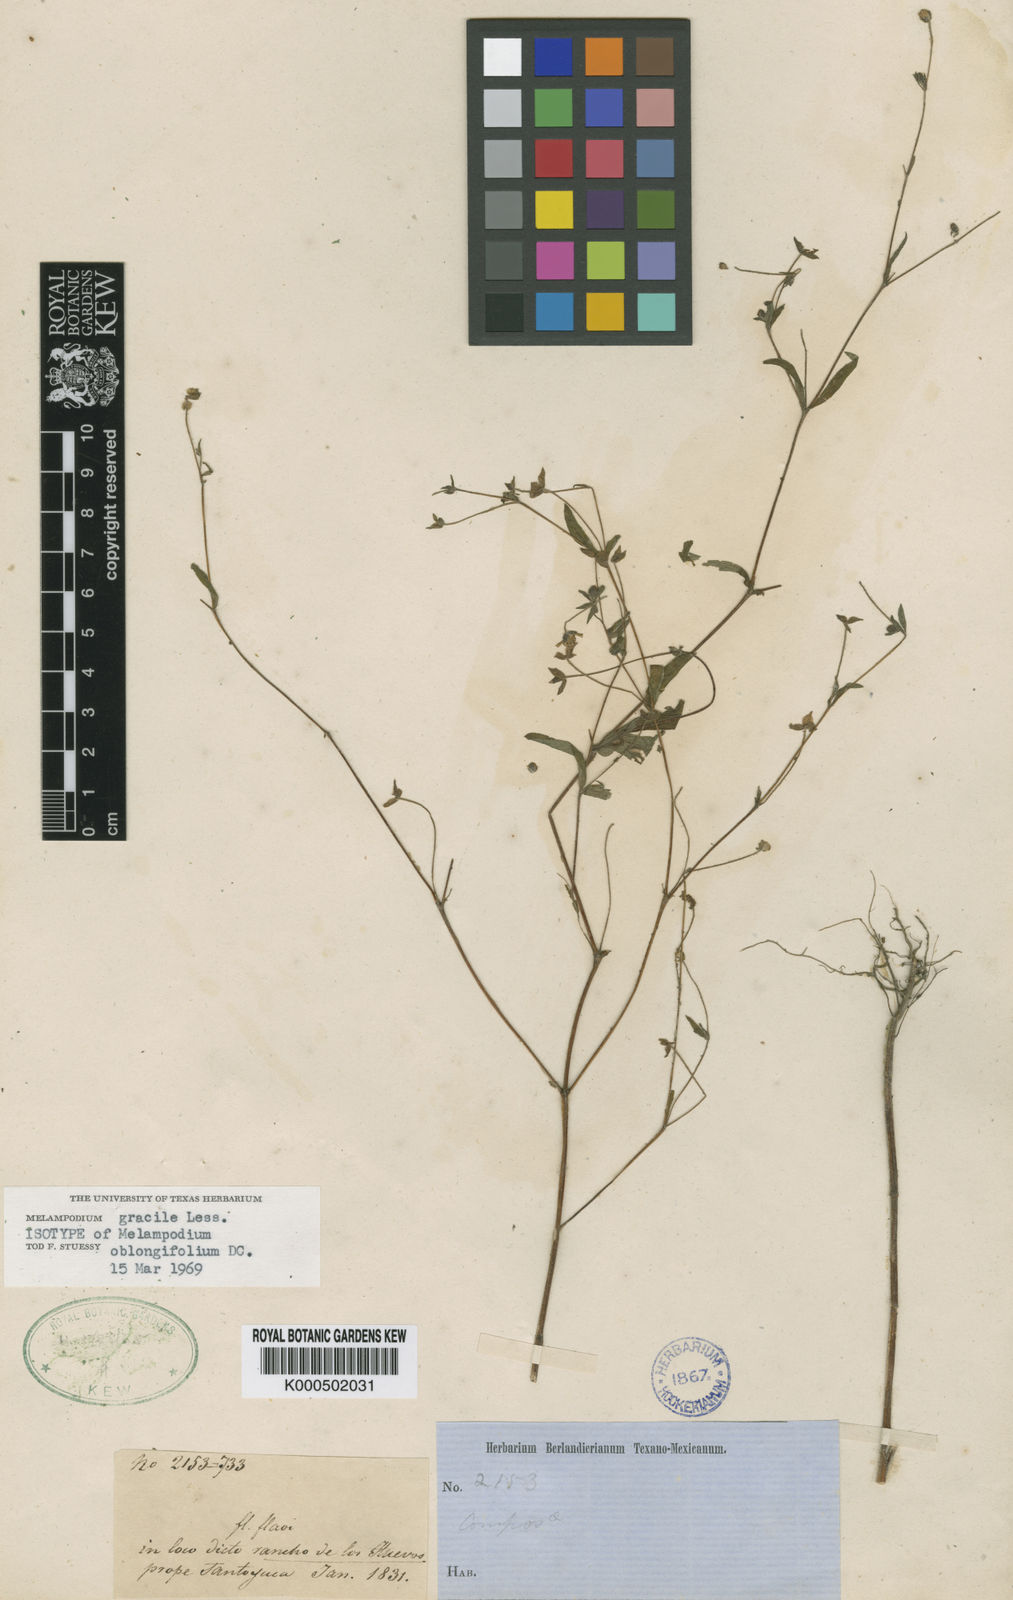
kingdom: Plantae
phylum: Tracheophyta
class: Magnoliopsida
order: Asterales
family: Asteraceae
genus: Melampodium
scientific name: Melampodium gracile
